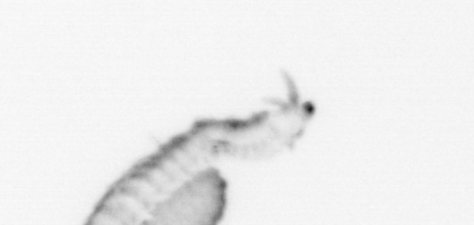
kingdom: Animalia
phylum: Annelida
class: Polychaeta
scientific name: Polychaeta
